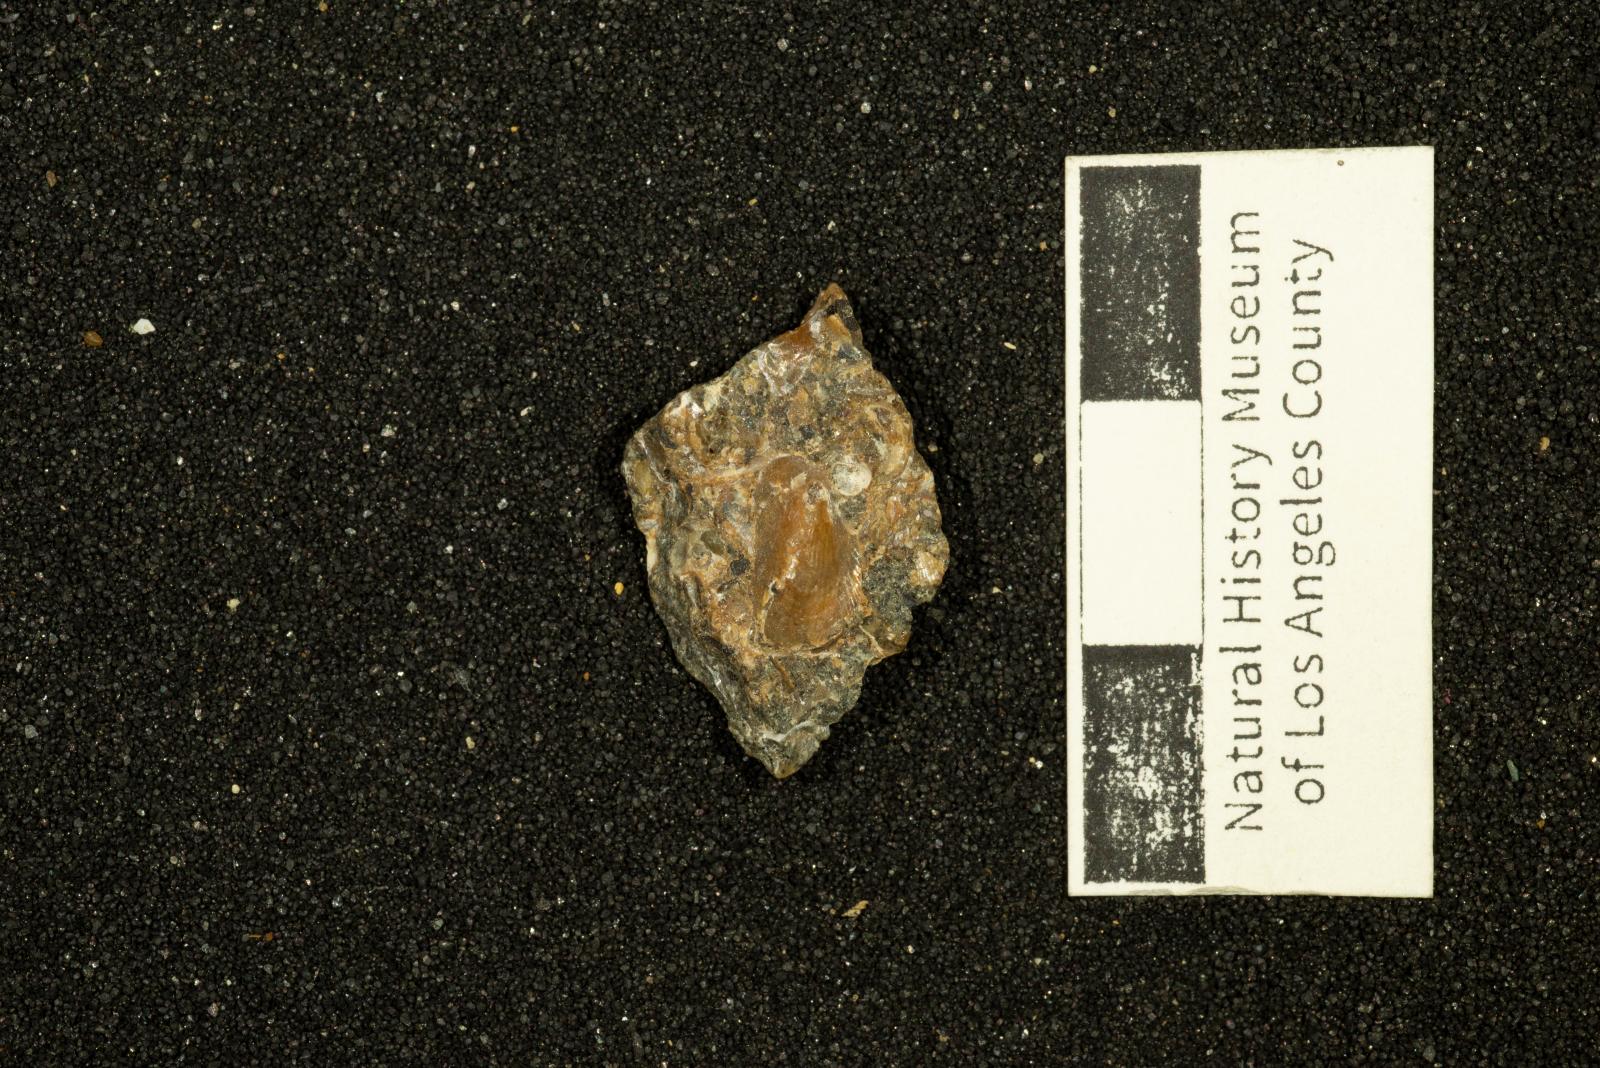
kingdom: Animalia
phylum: Mollusca
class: Bivalvia
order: Mytilida
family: Mytilidae
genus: Brachidontes
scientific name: Brachidontes
